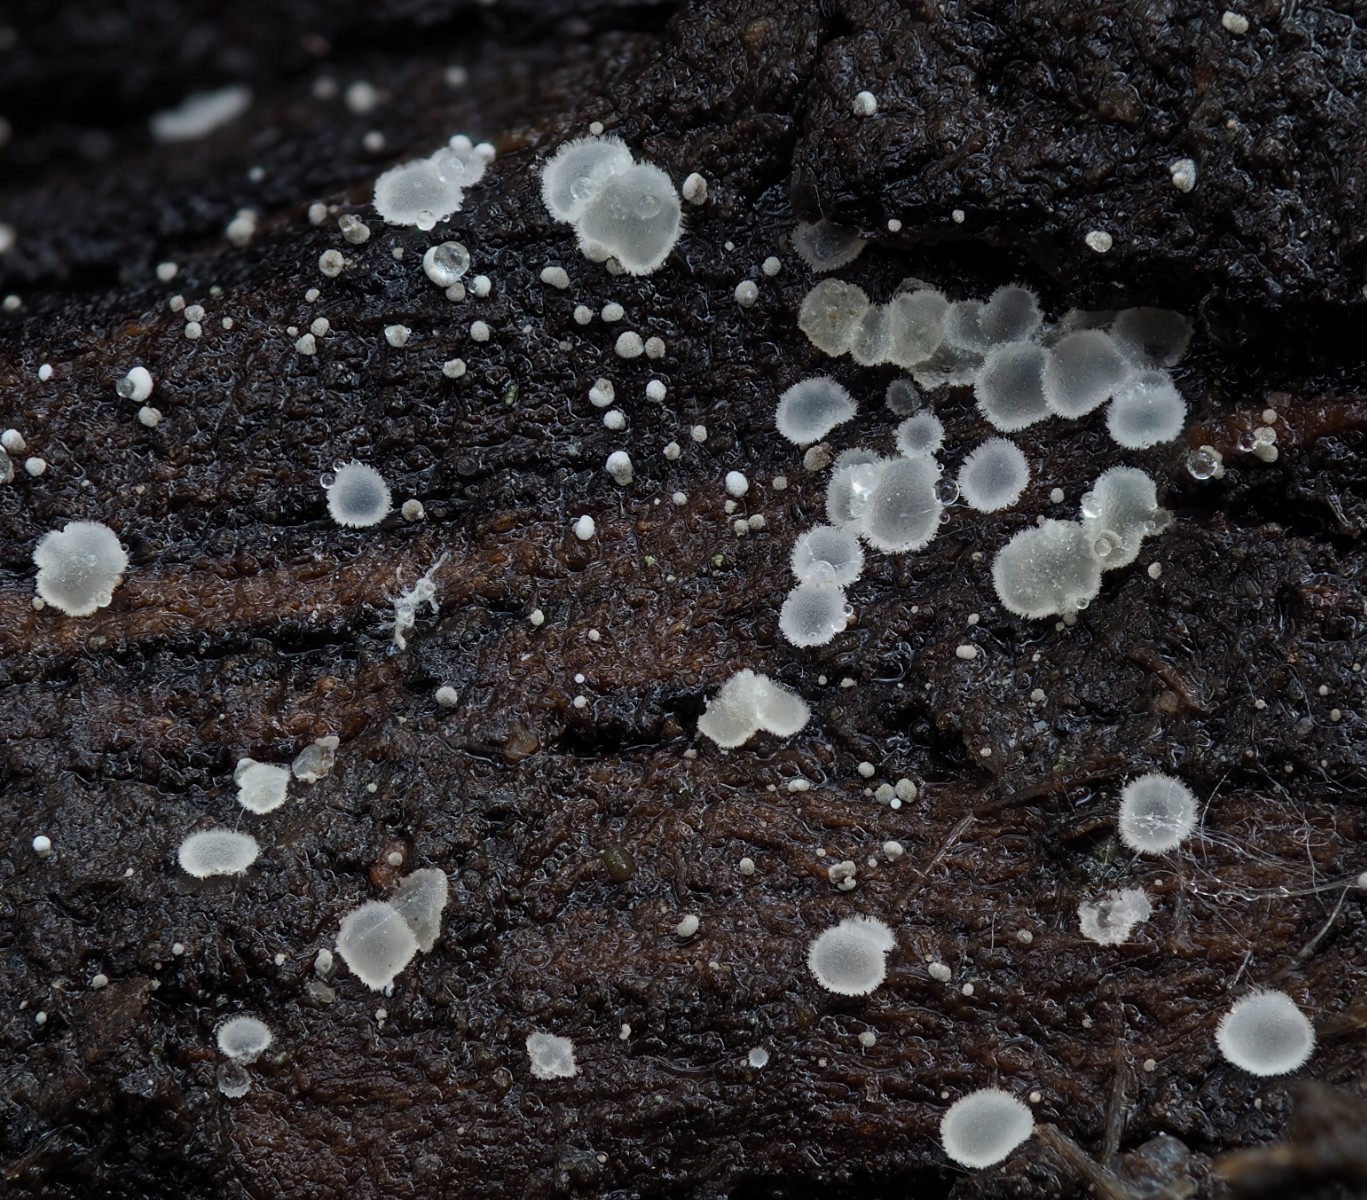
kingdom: Fungi
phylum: Ascomycota
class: Leotiomycetes
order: Helotiales
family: Hyaloscyphaceae
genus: Hyaloscypha
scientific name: Hyaloscypha albohyalina
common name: hvid klarskive
